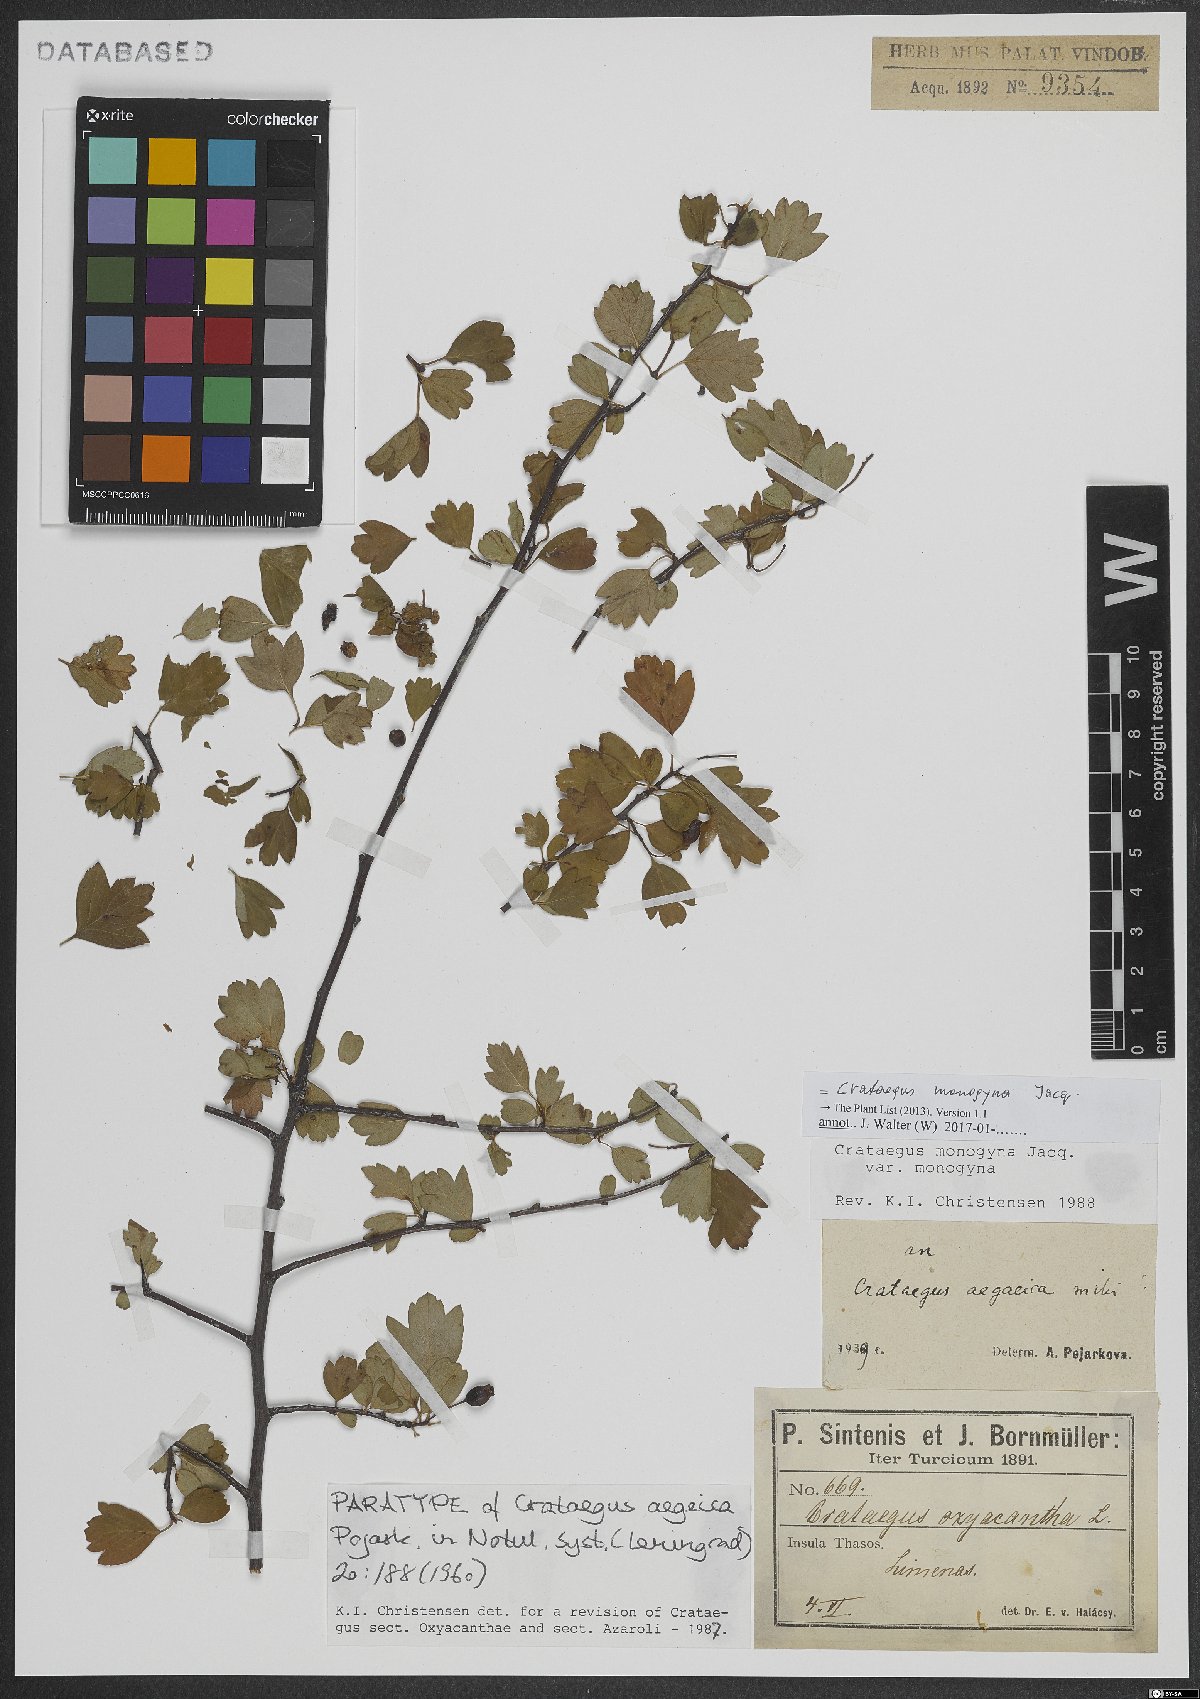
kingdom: Plantae
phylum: Tracheophyta
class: Magnoliopsida
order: Rosales
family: Rosaceae
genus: Crataegus
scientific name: Crataegus monogyna
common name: Hawthorn
